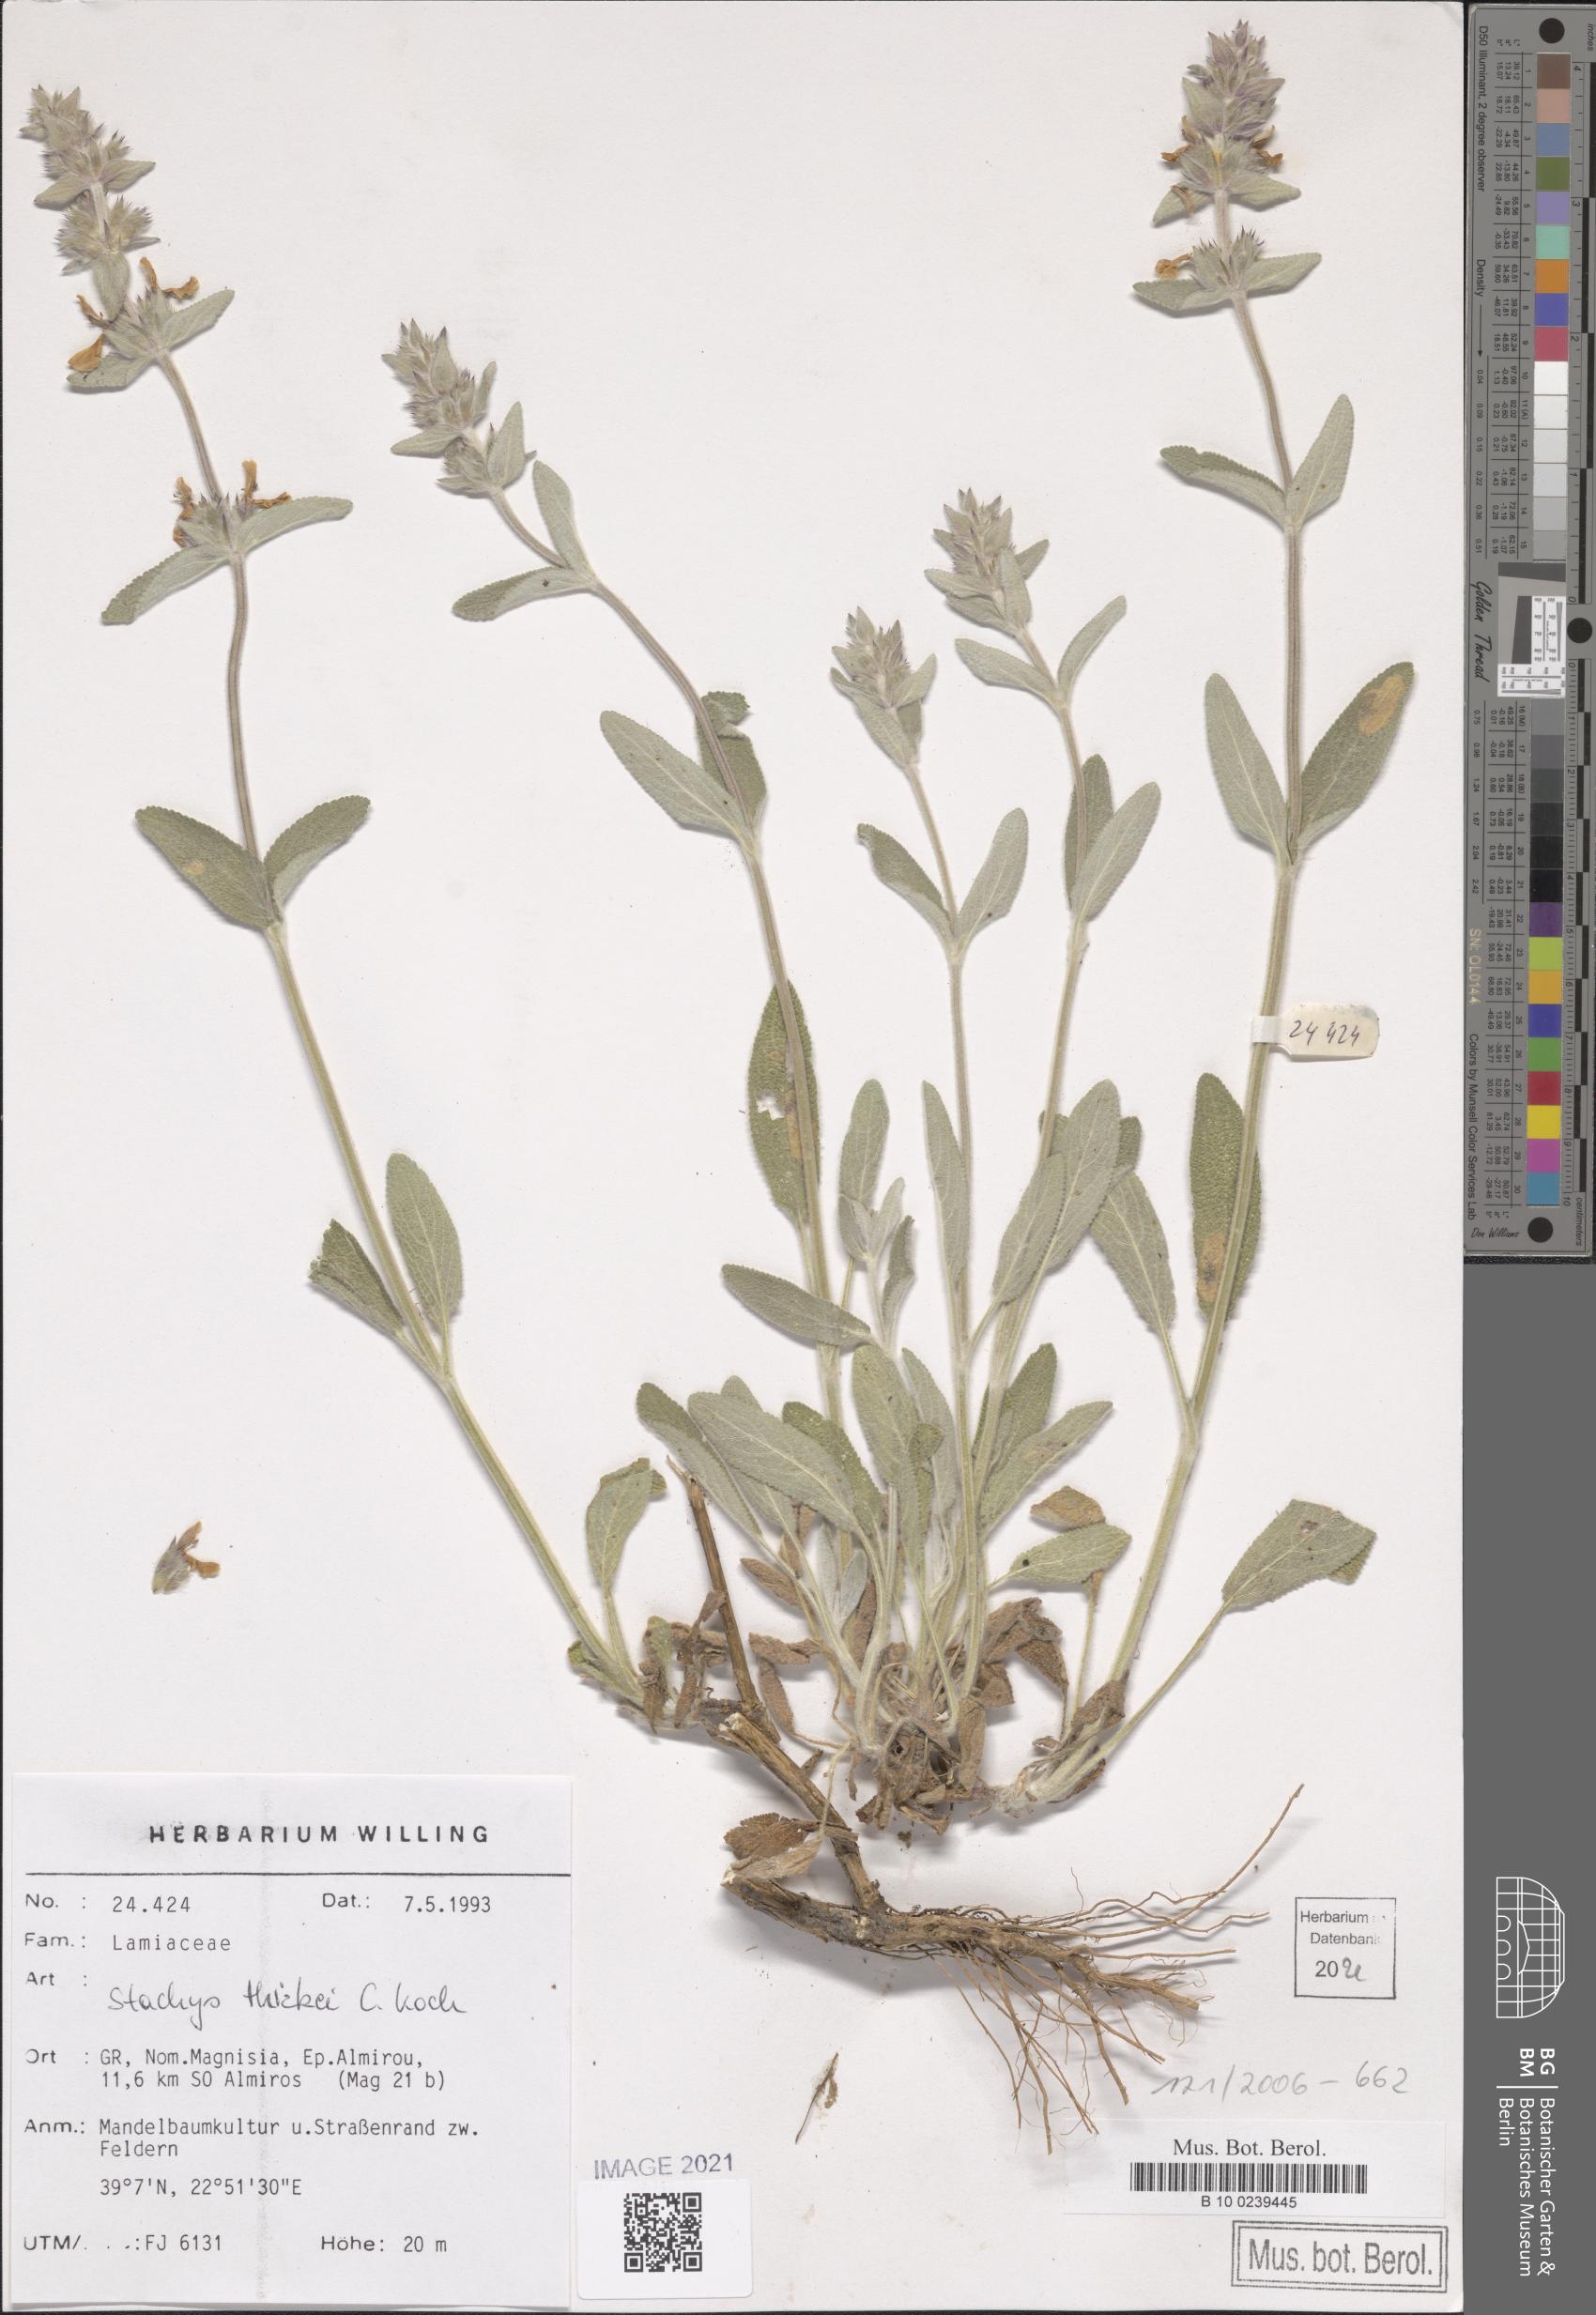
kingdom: Plantae
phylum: Tracheophyta
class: Magnoliopsida
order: Lamiales
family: Lamiaceae
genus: Stachys
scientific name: Stachys thirkei
